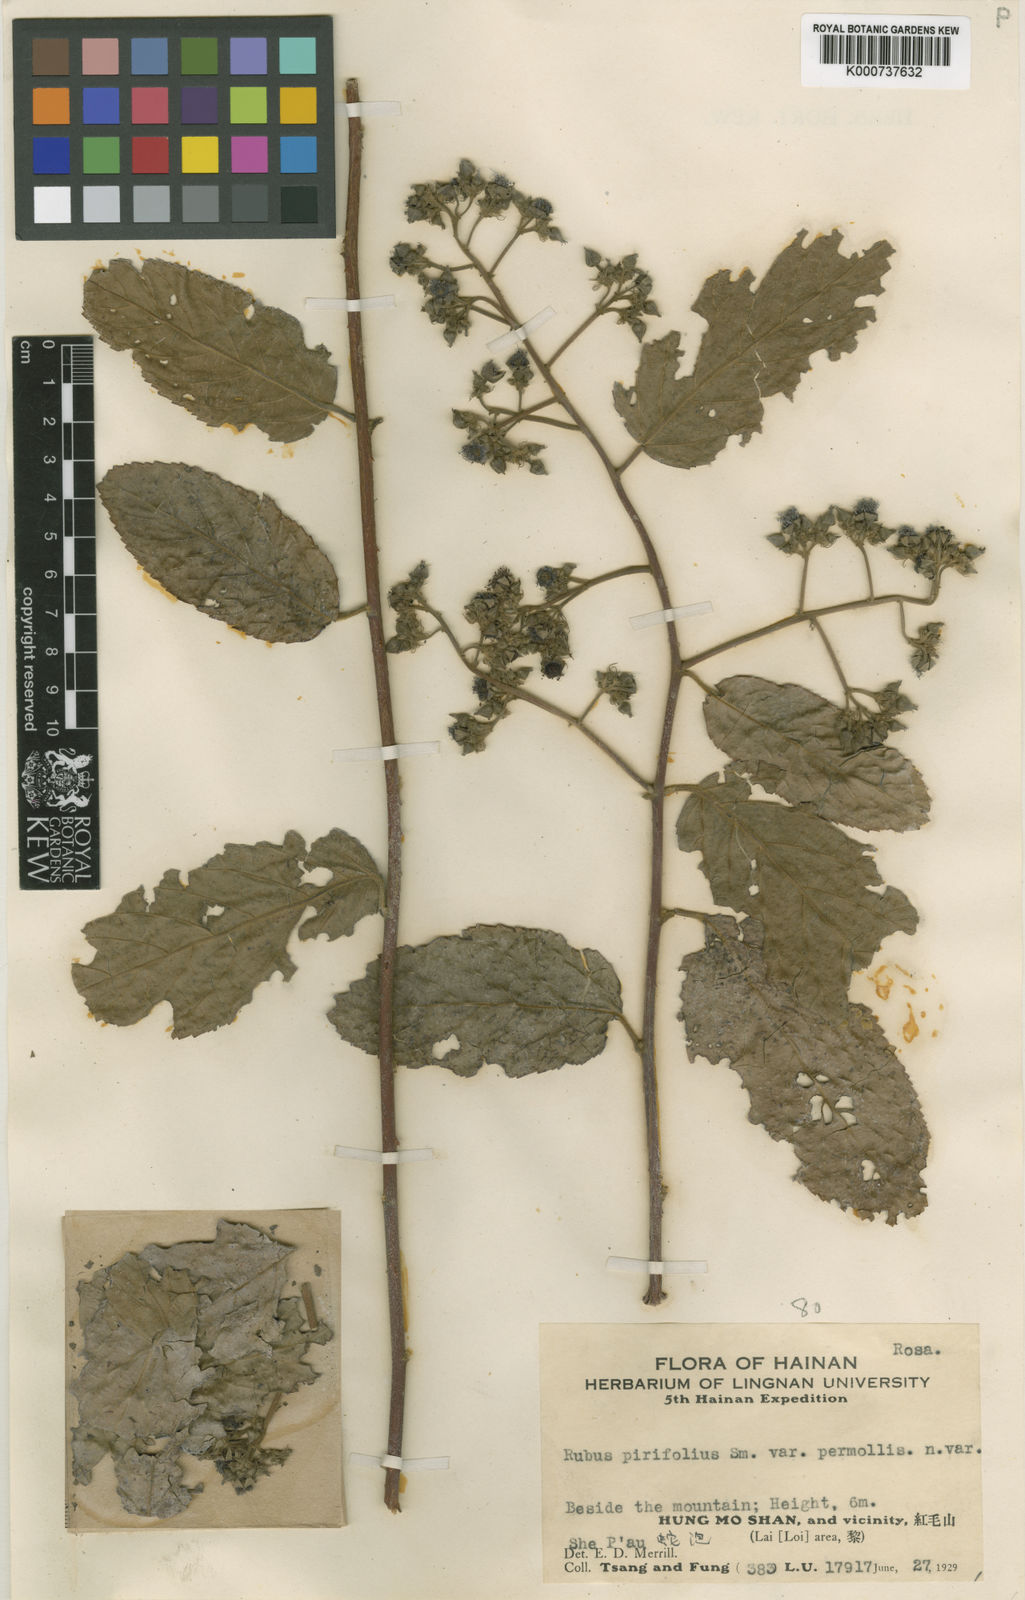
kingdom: Plantae
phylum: Tracheophyta
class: Magnoliopsida
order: Rosales
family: Rosaceae
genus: Rubus
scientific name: Rubus pirifolius
